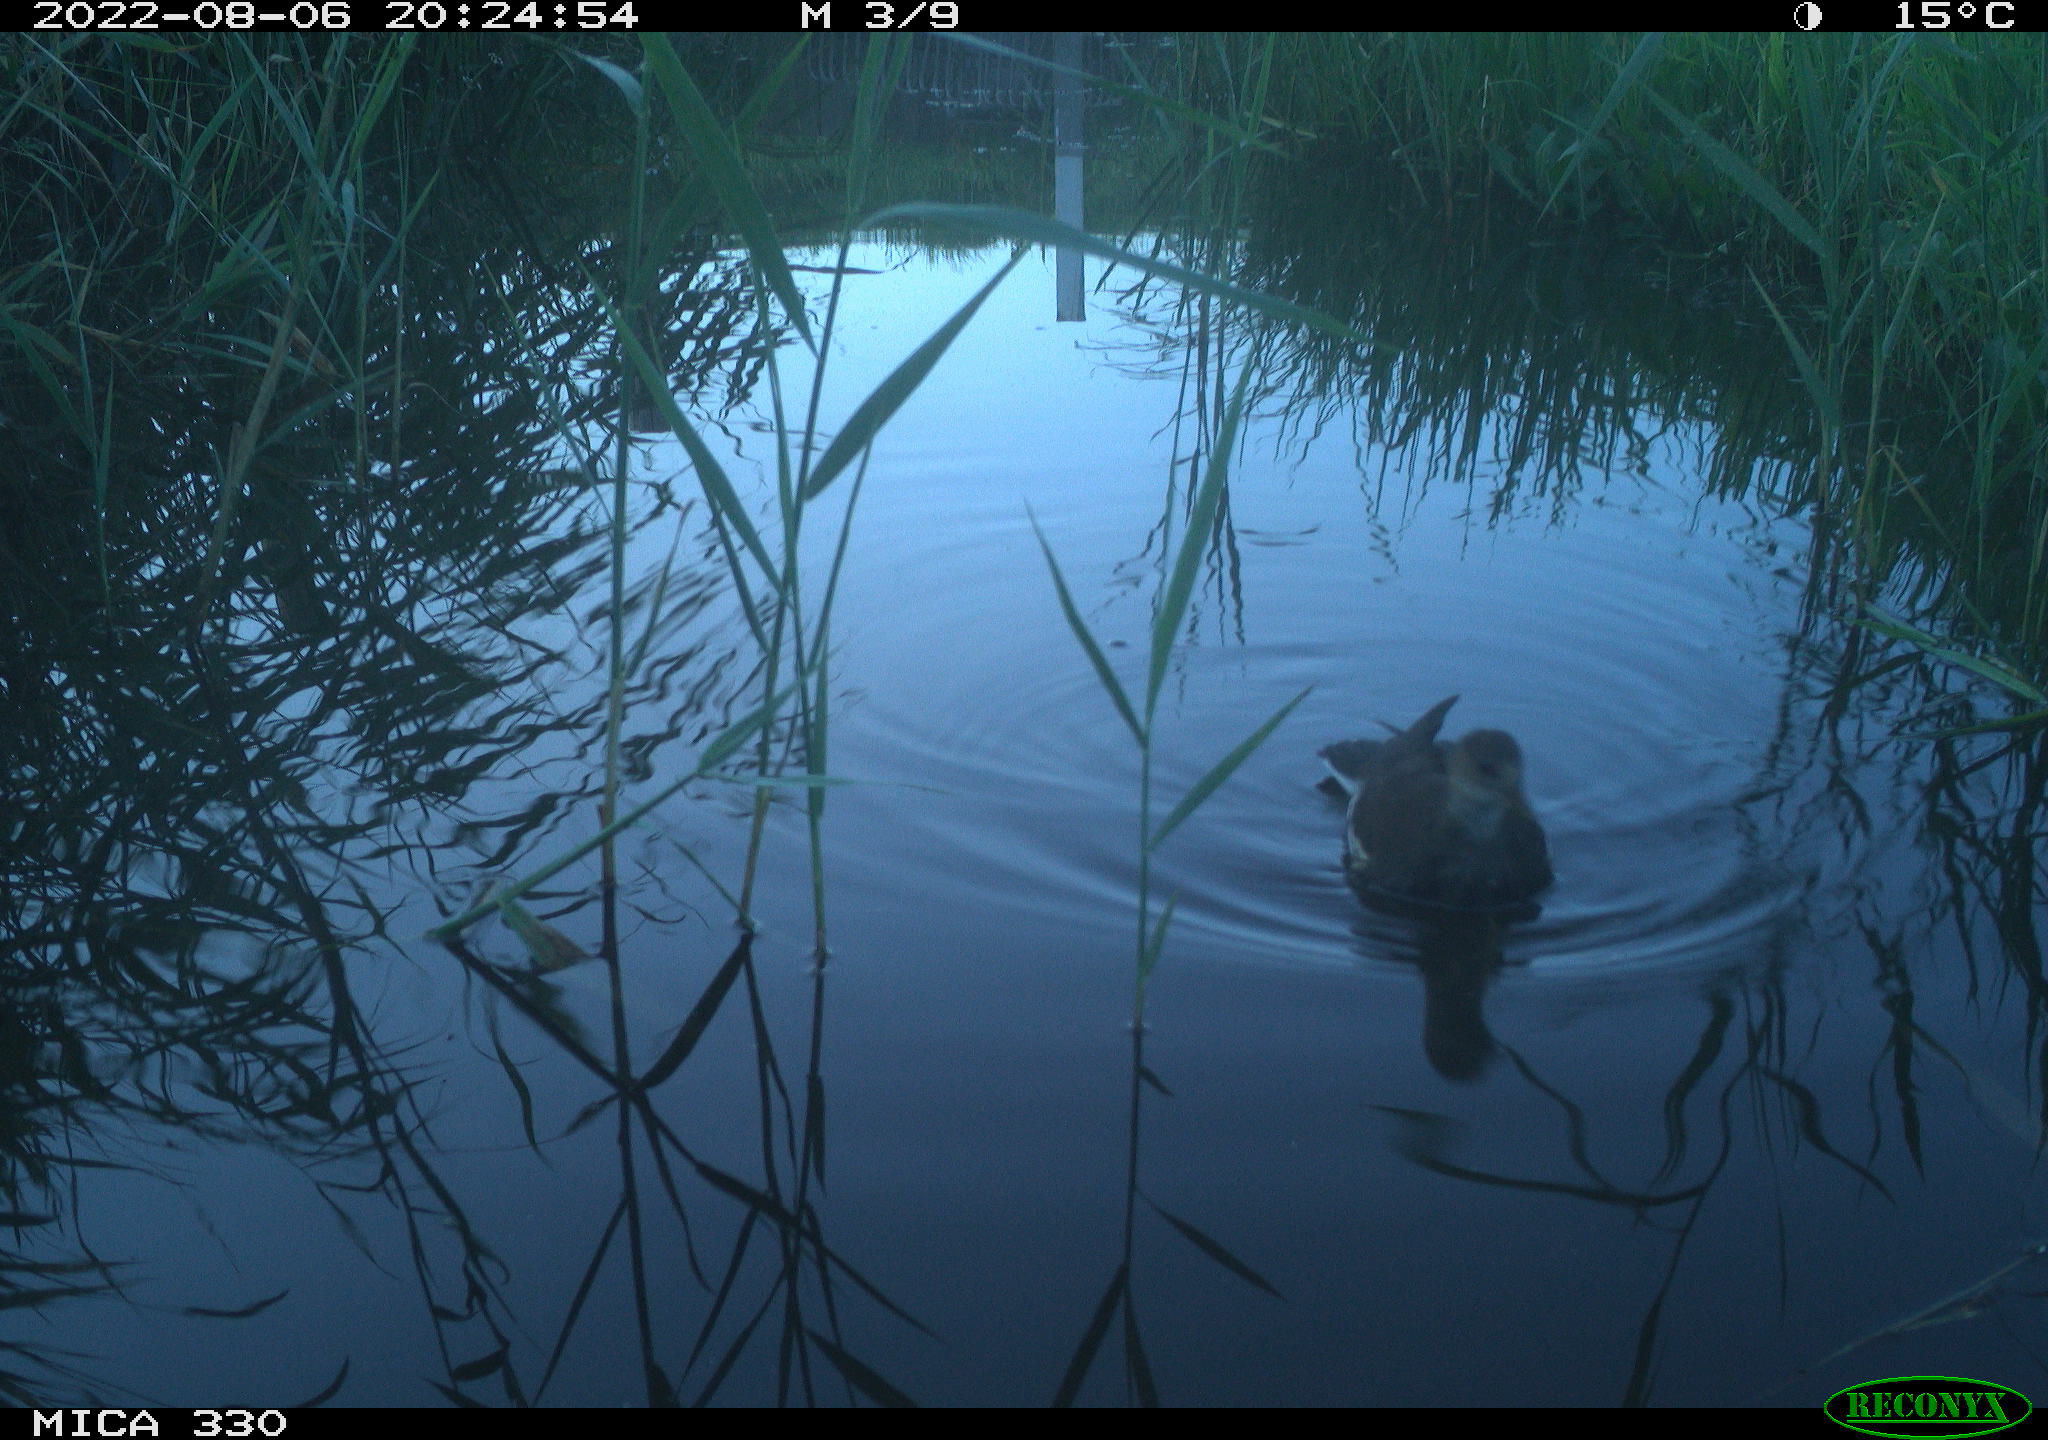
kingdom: Animalia
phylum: Chordata
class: Aves
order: Gruiformes
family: Rallidae
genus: Gallinula
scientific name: Gallinula chloropus
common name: Common moorhen
